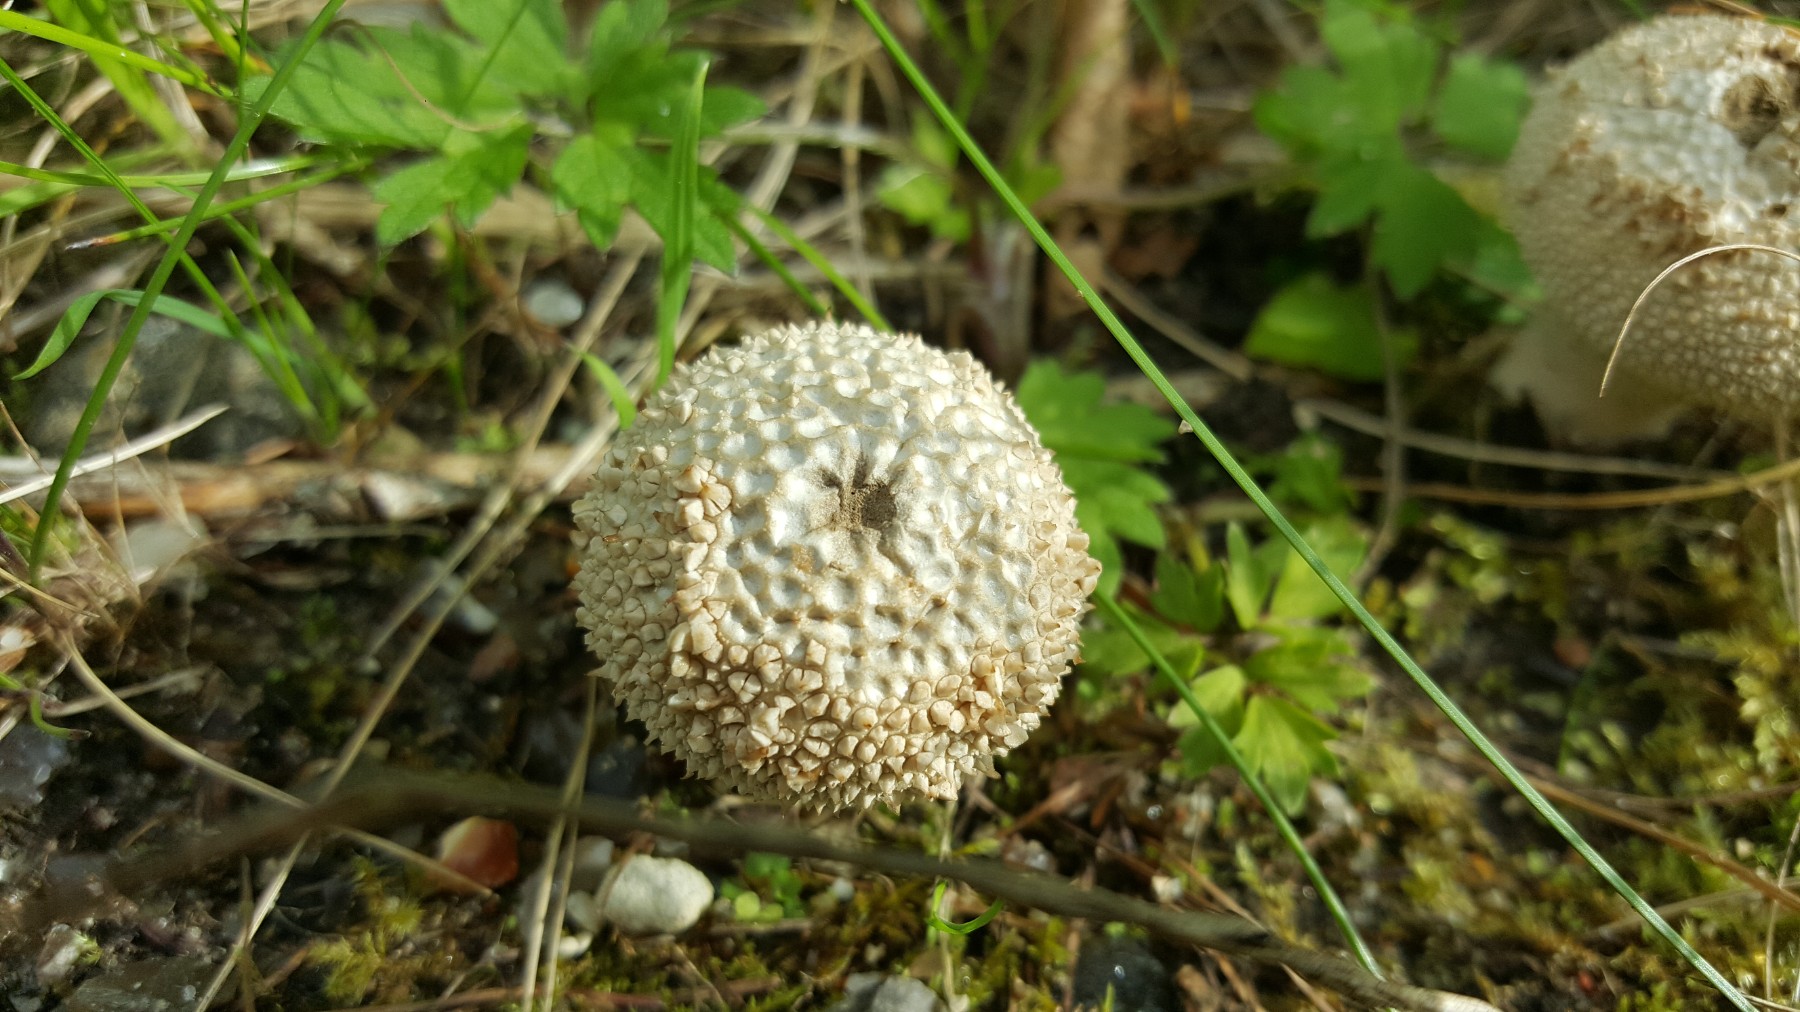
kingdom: Fungi
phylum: Basidiomycota
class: Agaricomycetes
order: Agaricales
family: Lycoperdaceae
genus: Lycoperdon
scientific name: Lycoperdon perlatum
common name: krystal-støvbold
